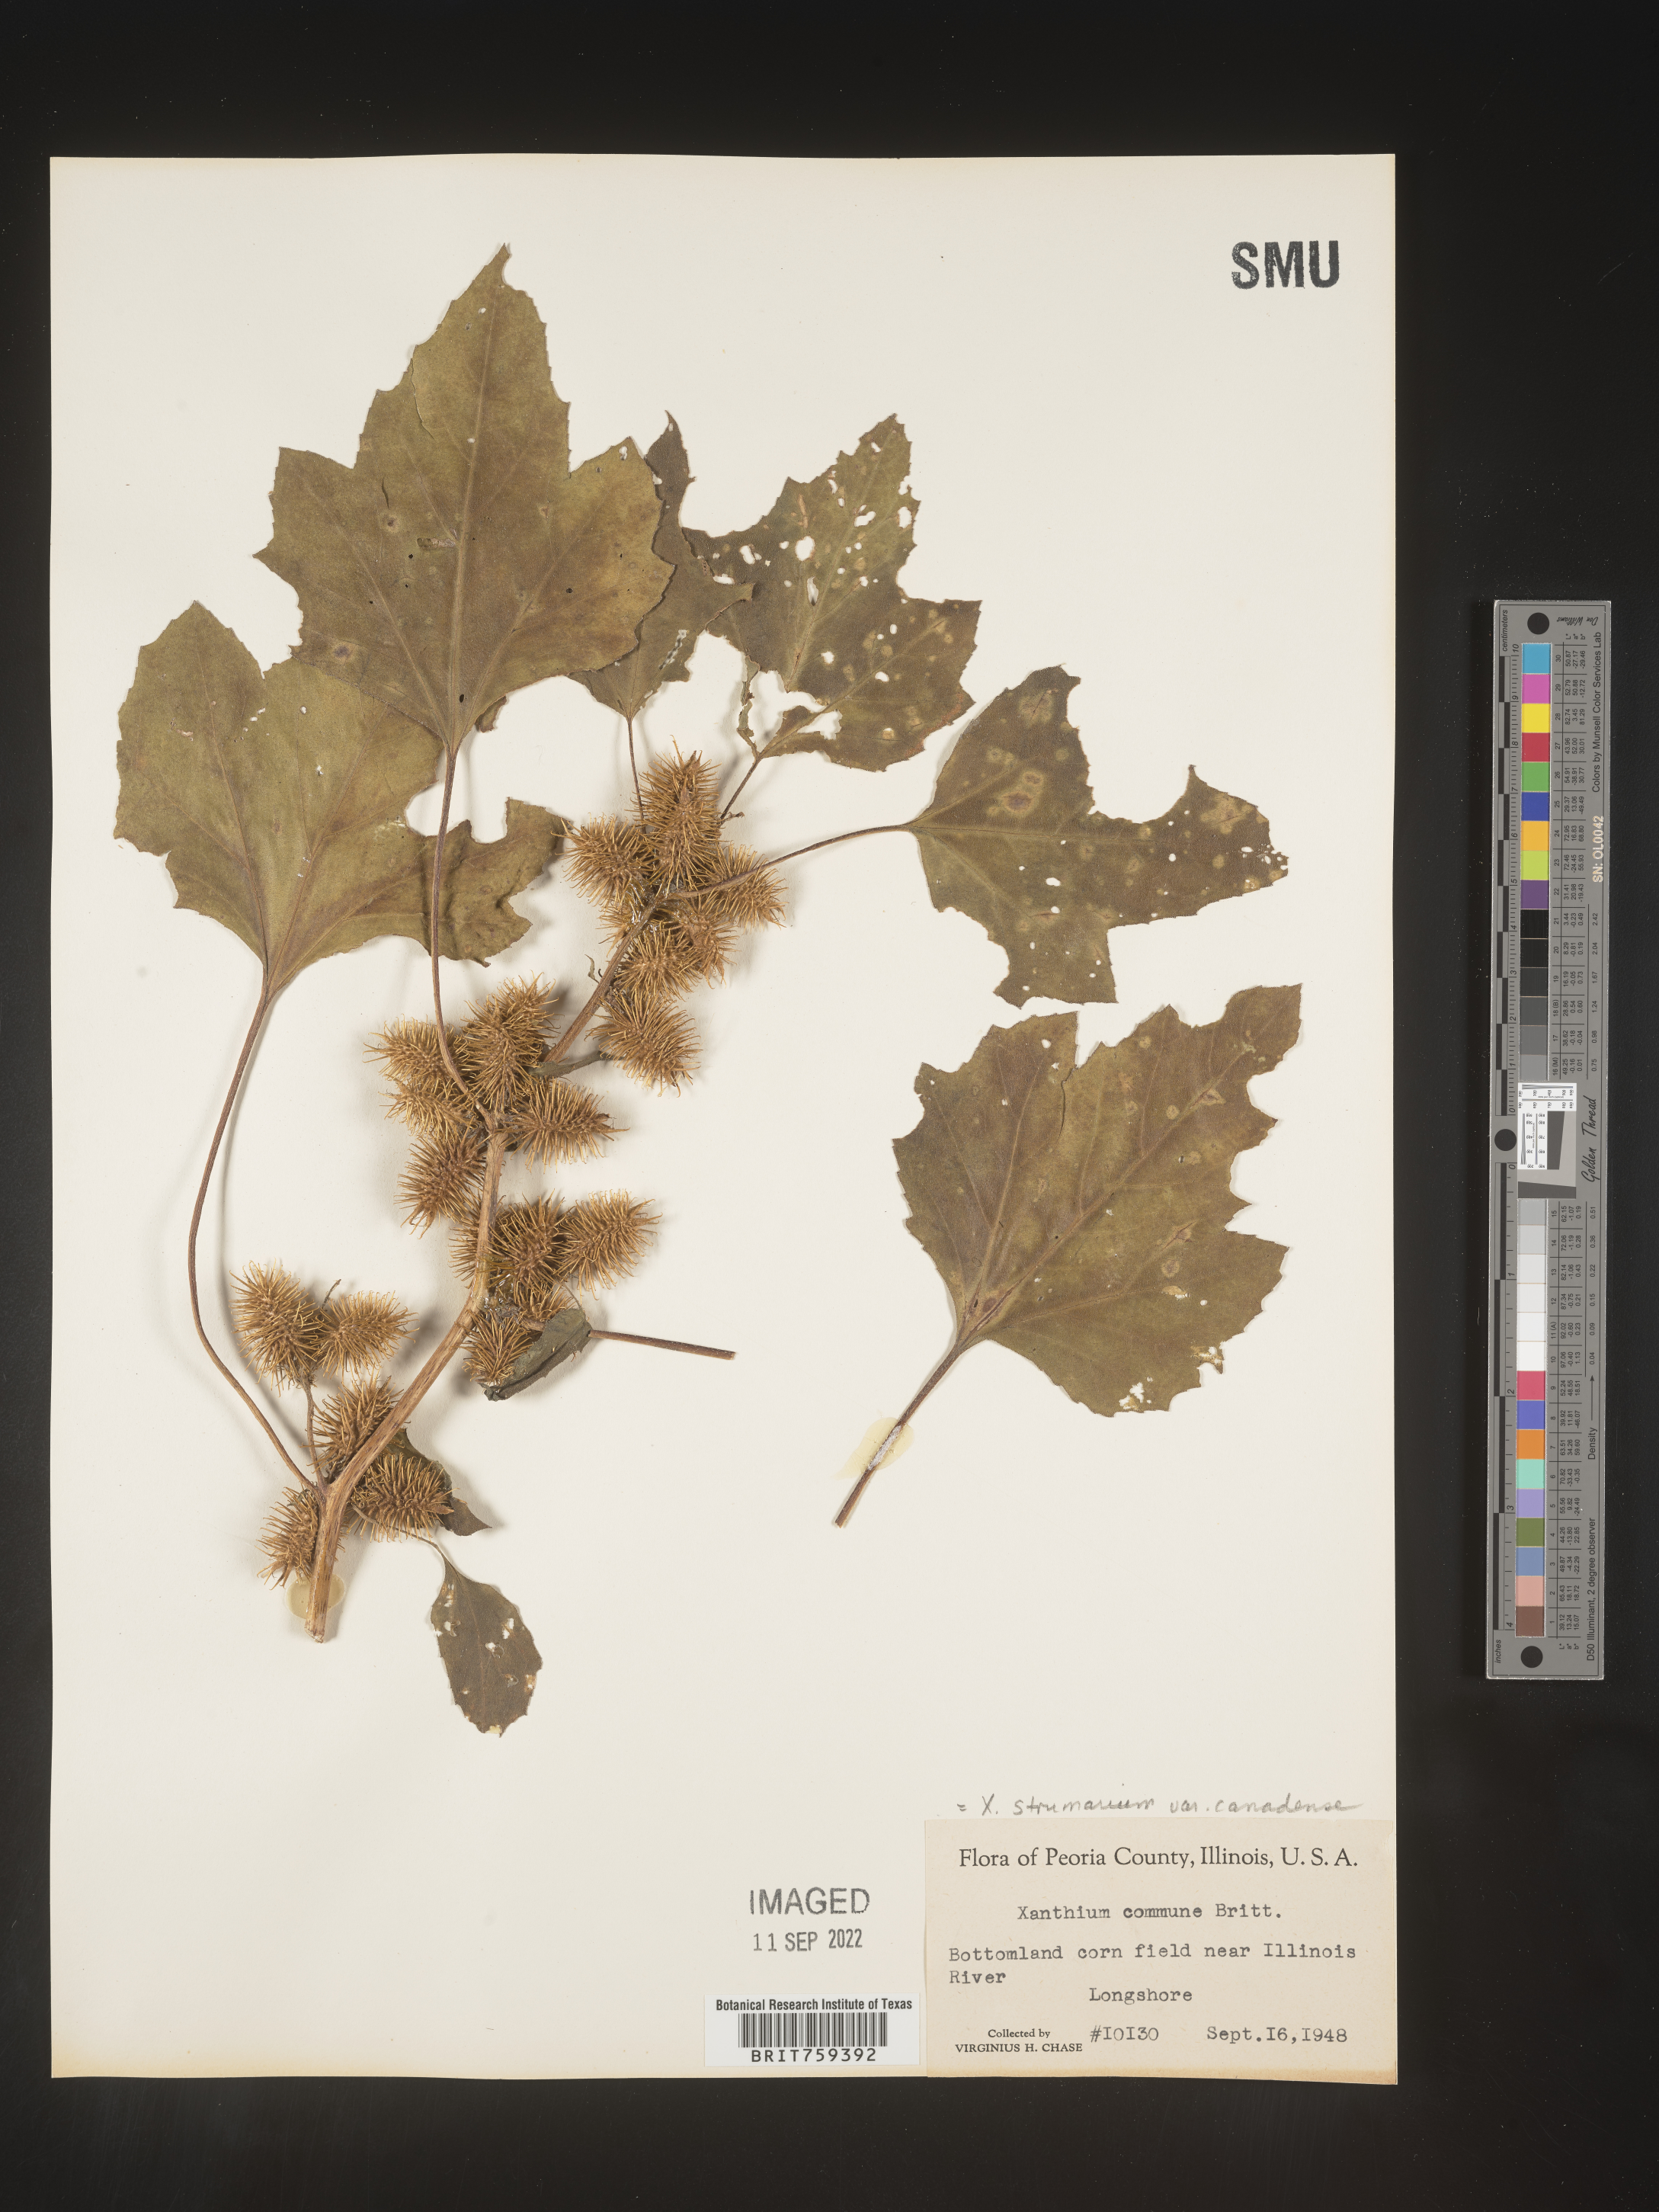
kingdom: Plantae
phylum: Tracheophyta
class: Magnoliopsida
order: Asterales
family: Asteraceae
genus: Xanthium
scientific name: Xanthium orientale
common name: Californian burr
